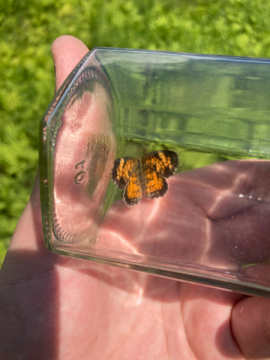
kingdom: Animalia
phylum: Arthropoda
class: Insecta
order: Lepidoptera
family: Nymphalidae
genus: Phyciodes
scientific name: Phyciodes tharos
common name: Pearl Crescent
